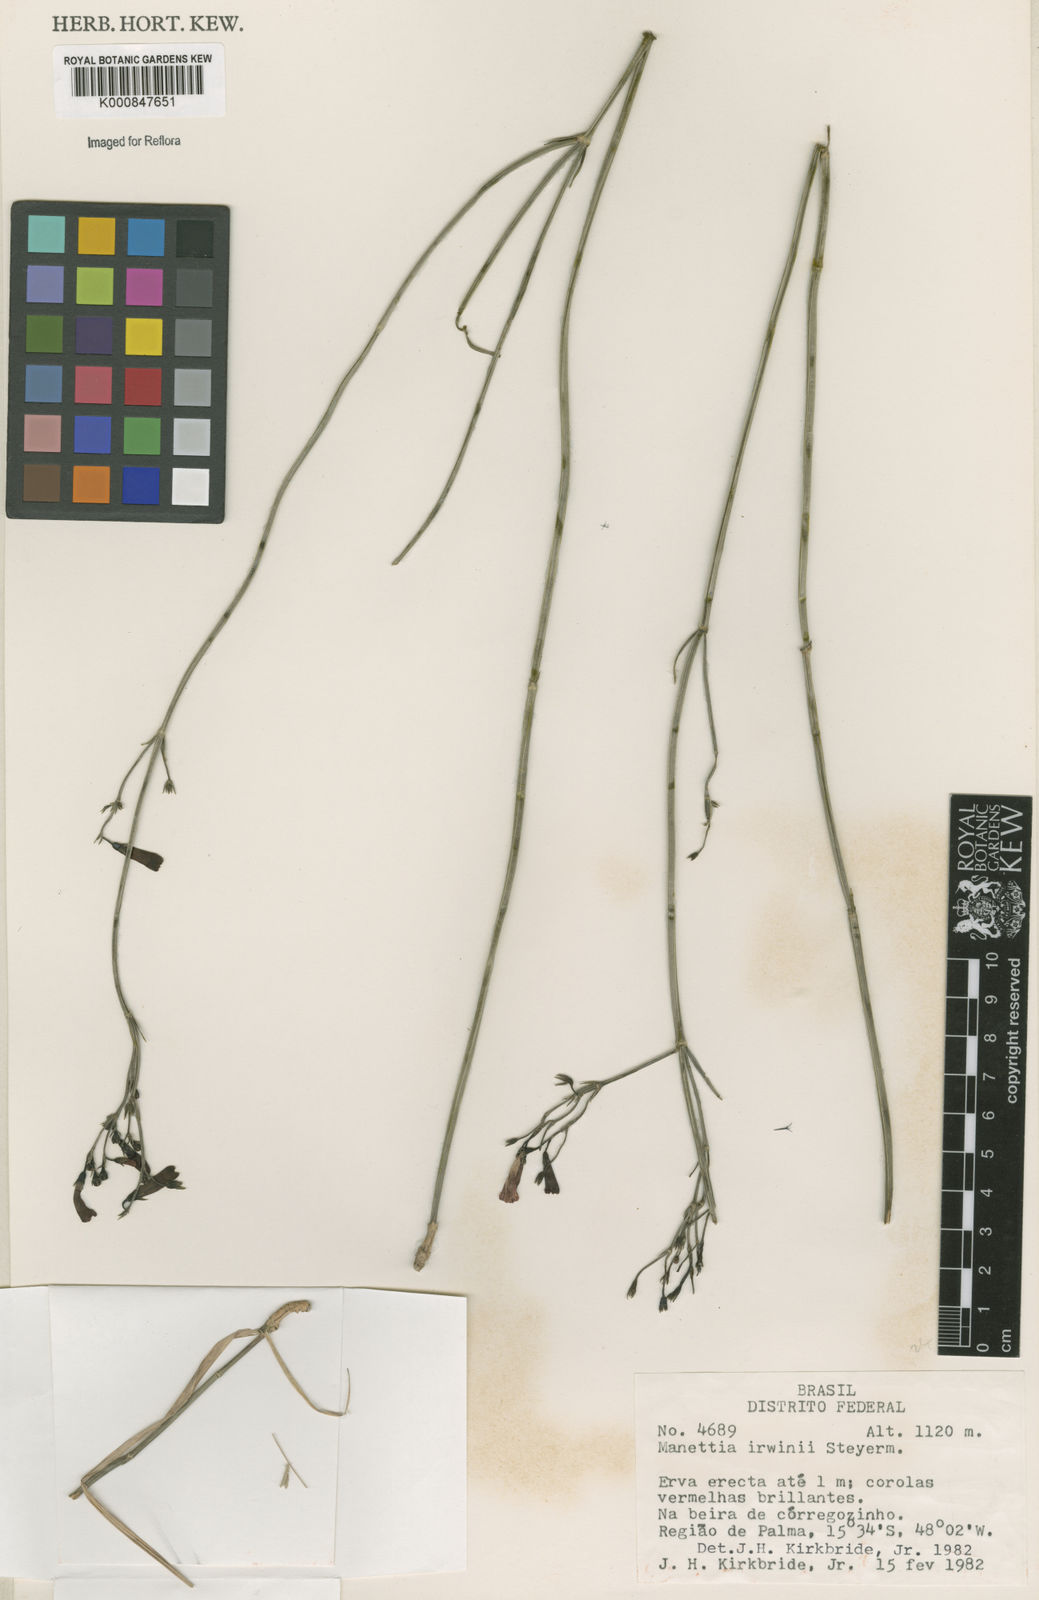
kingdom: Plantae
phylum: Tracheophyta
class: Magnoliopsida
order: Gentianales
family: Rubiaceae
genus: Manettia
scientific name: Manettia irwinii
